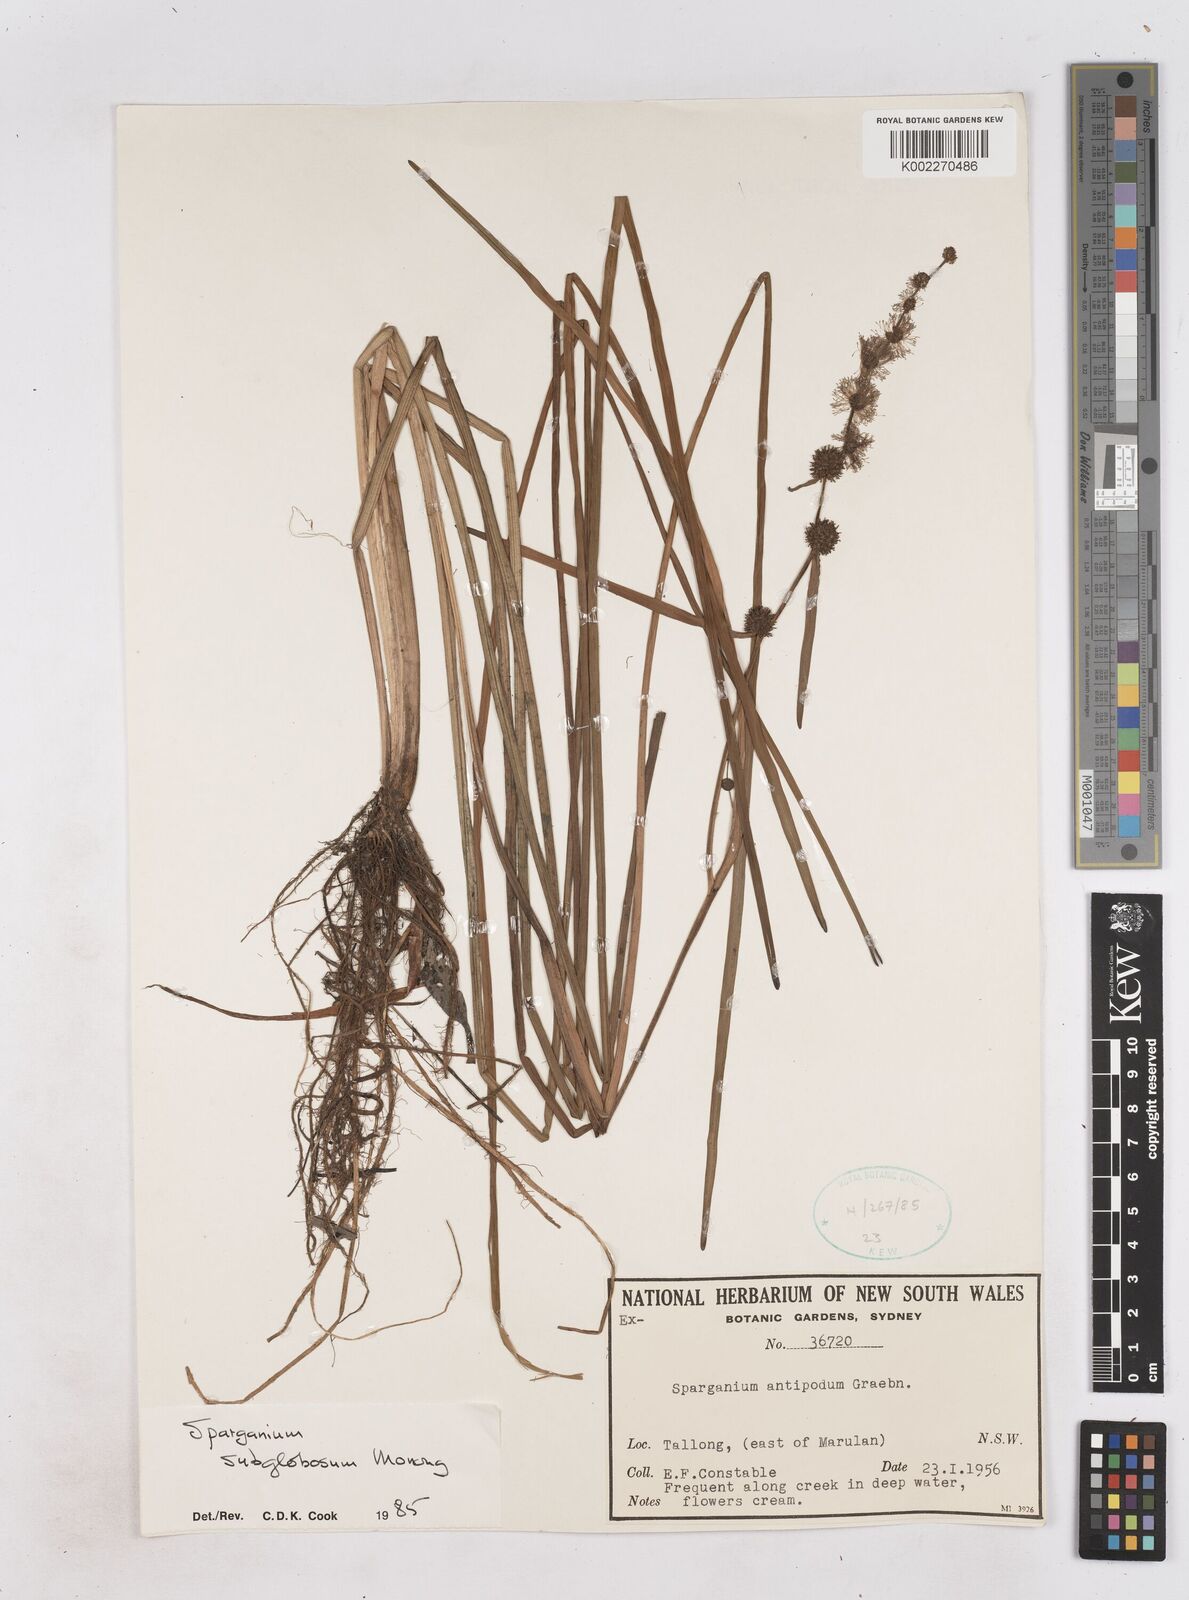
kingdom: Plantae
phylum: Tracheophyta
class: Liliopsida
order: Poales
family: Typhaceae
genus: Sparganium
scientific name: Sparganium subglobosum
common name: Burr­-reed
